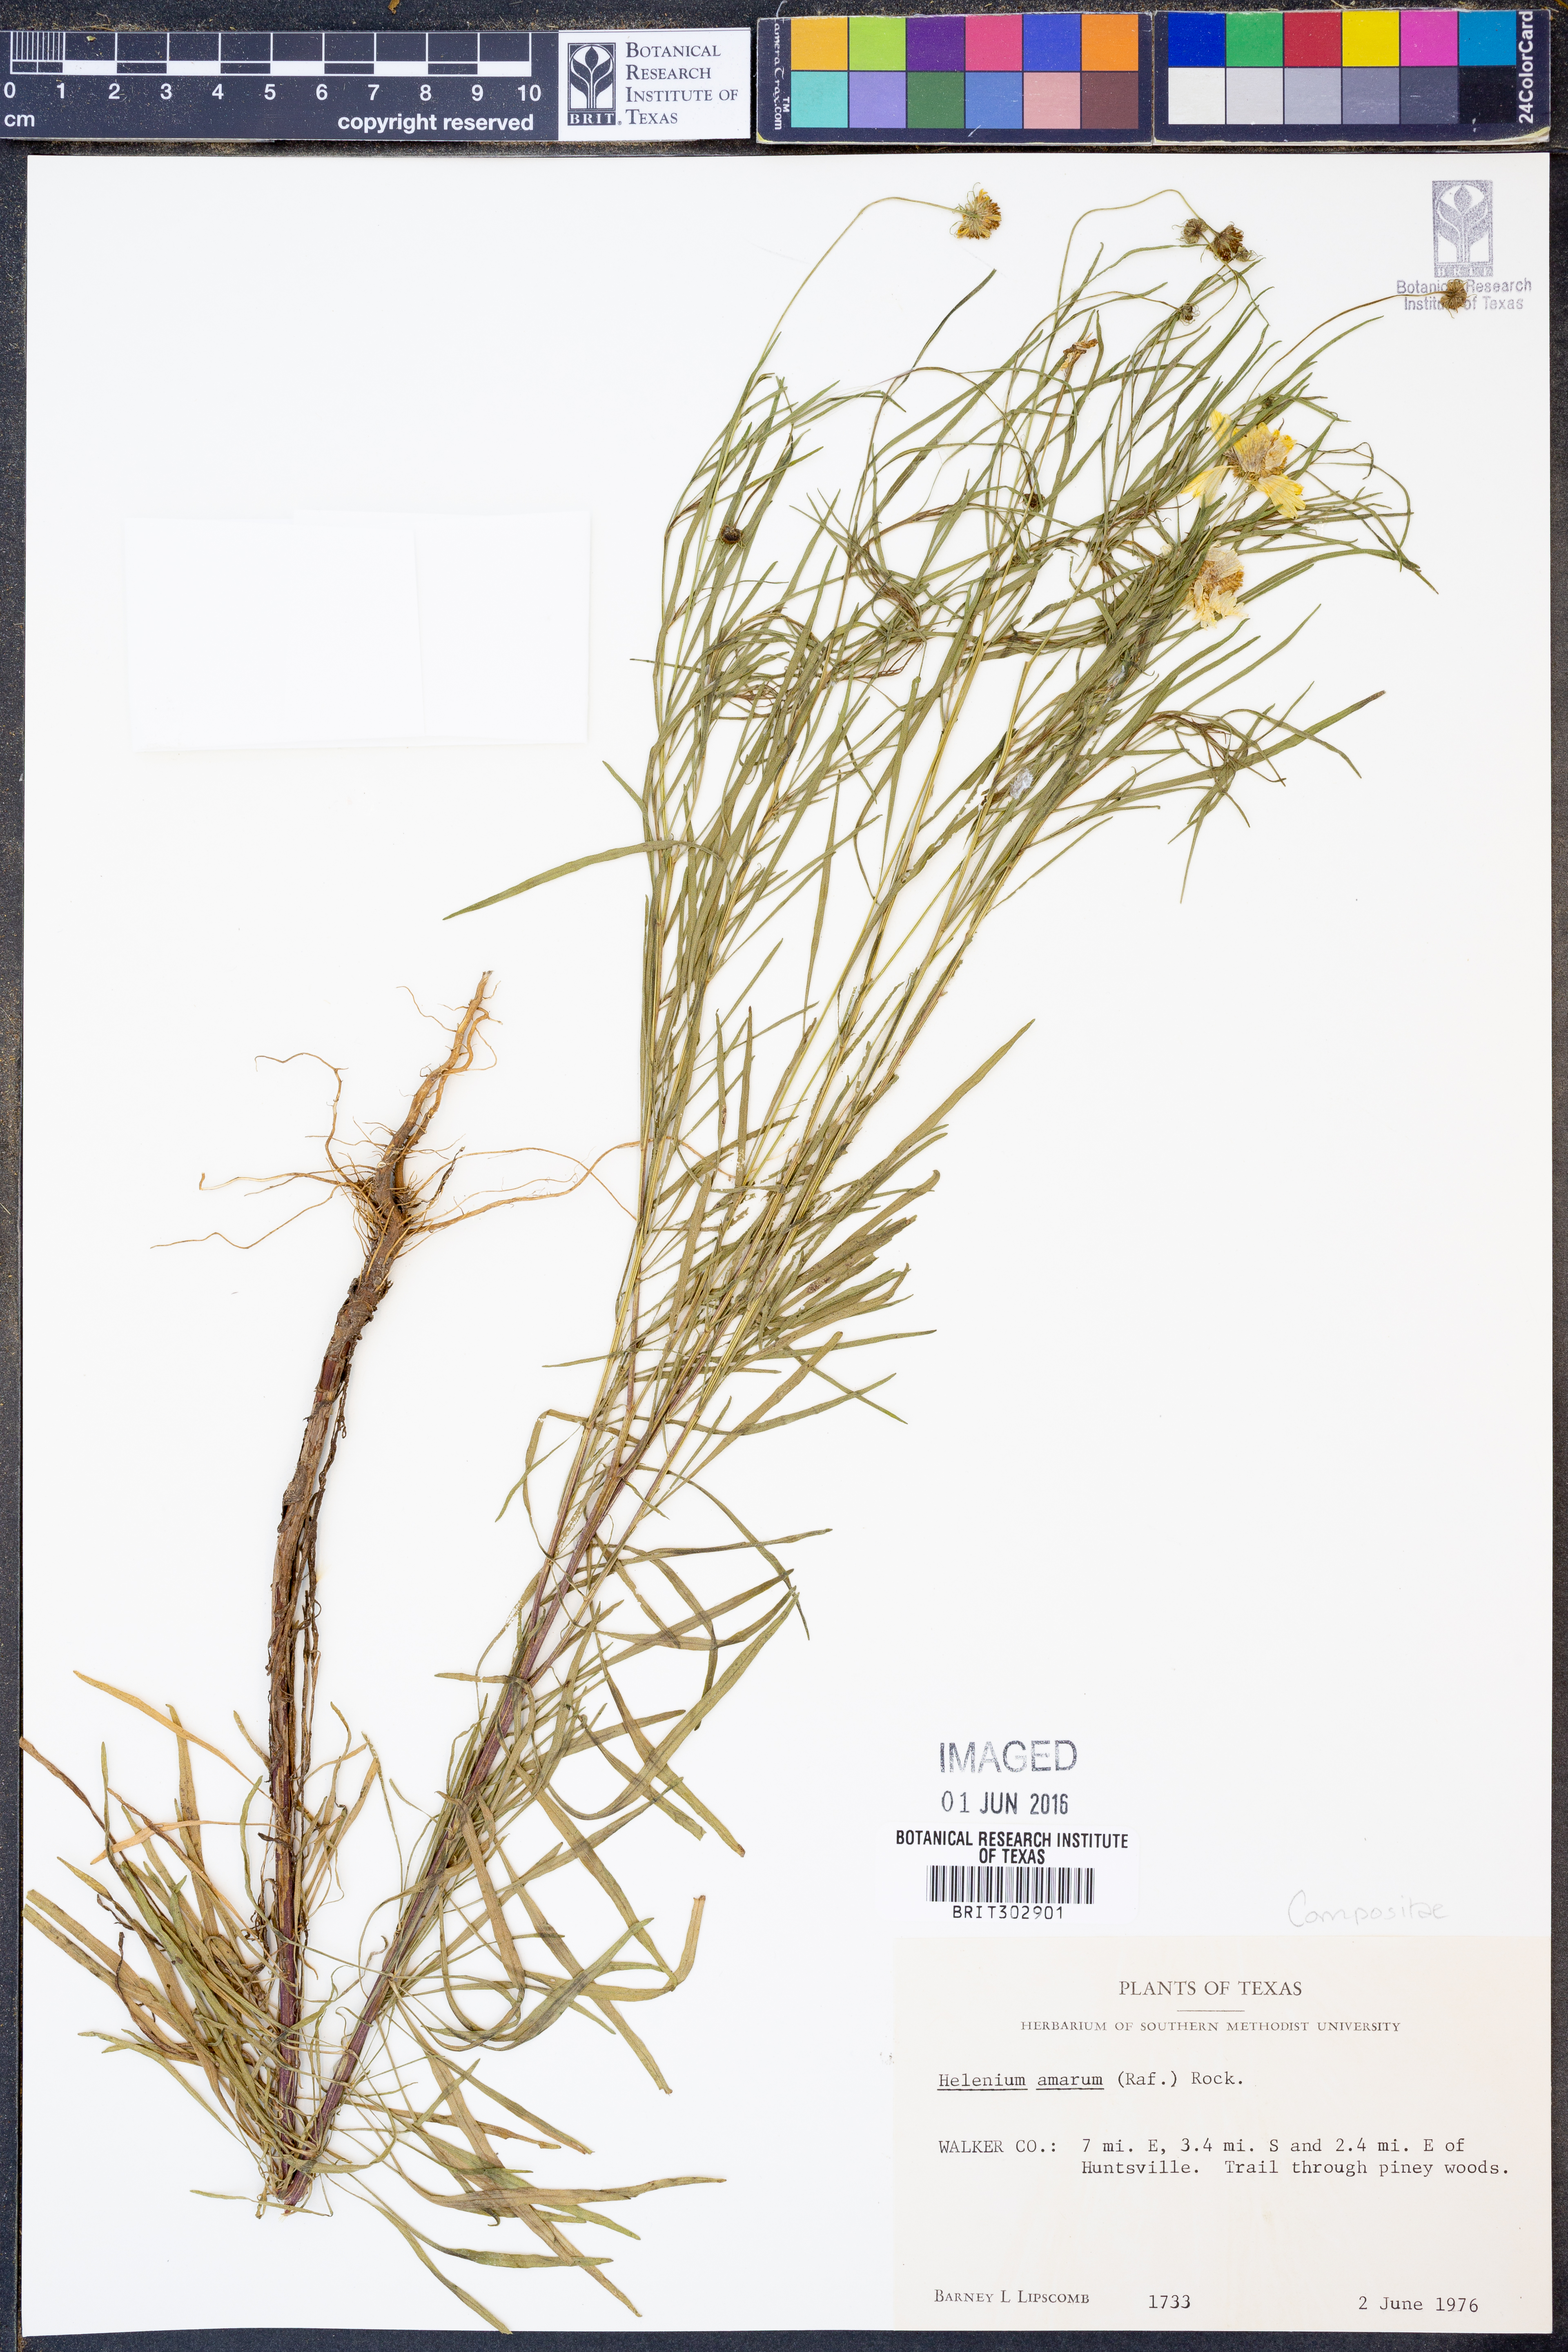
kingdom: Plantae
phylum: Tracheophyta
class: Magnoliopsida
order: Asterales
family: Asteraceae
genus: Helenium
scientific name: Helenium amarum
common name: Bitter sneezeweed
